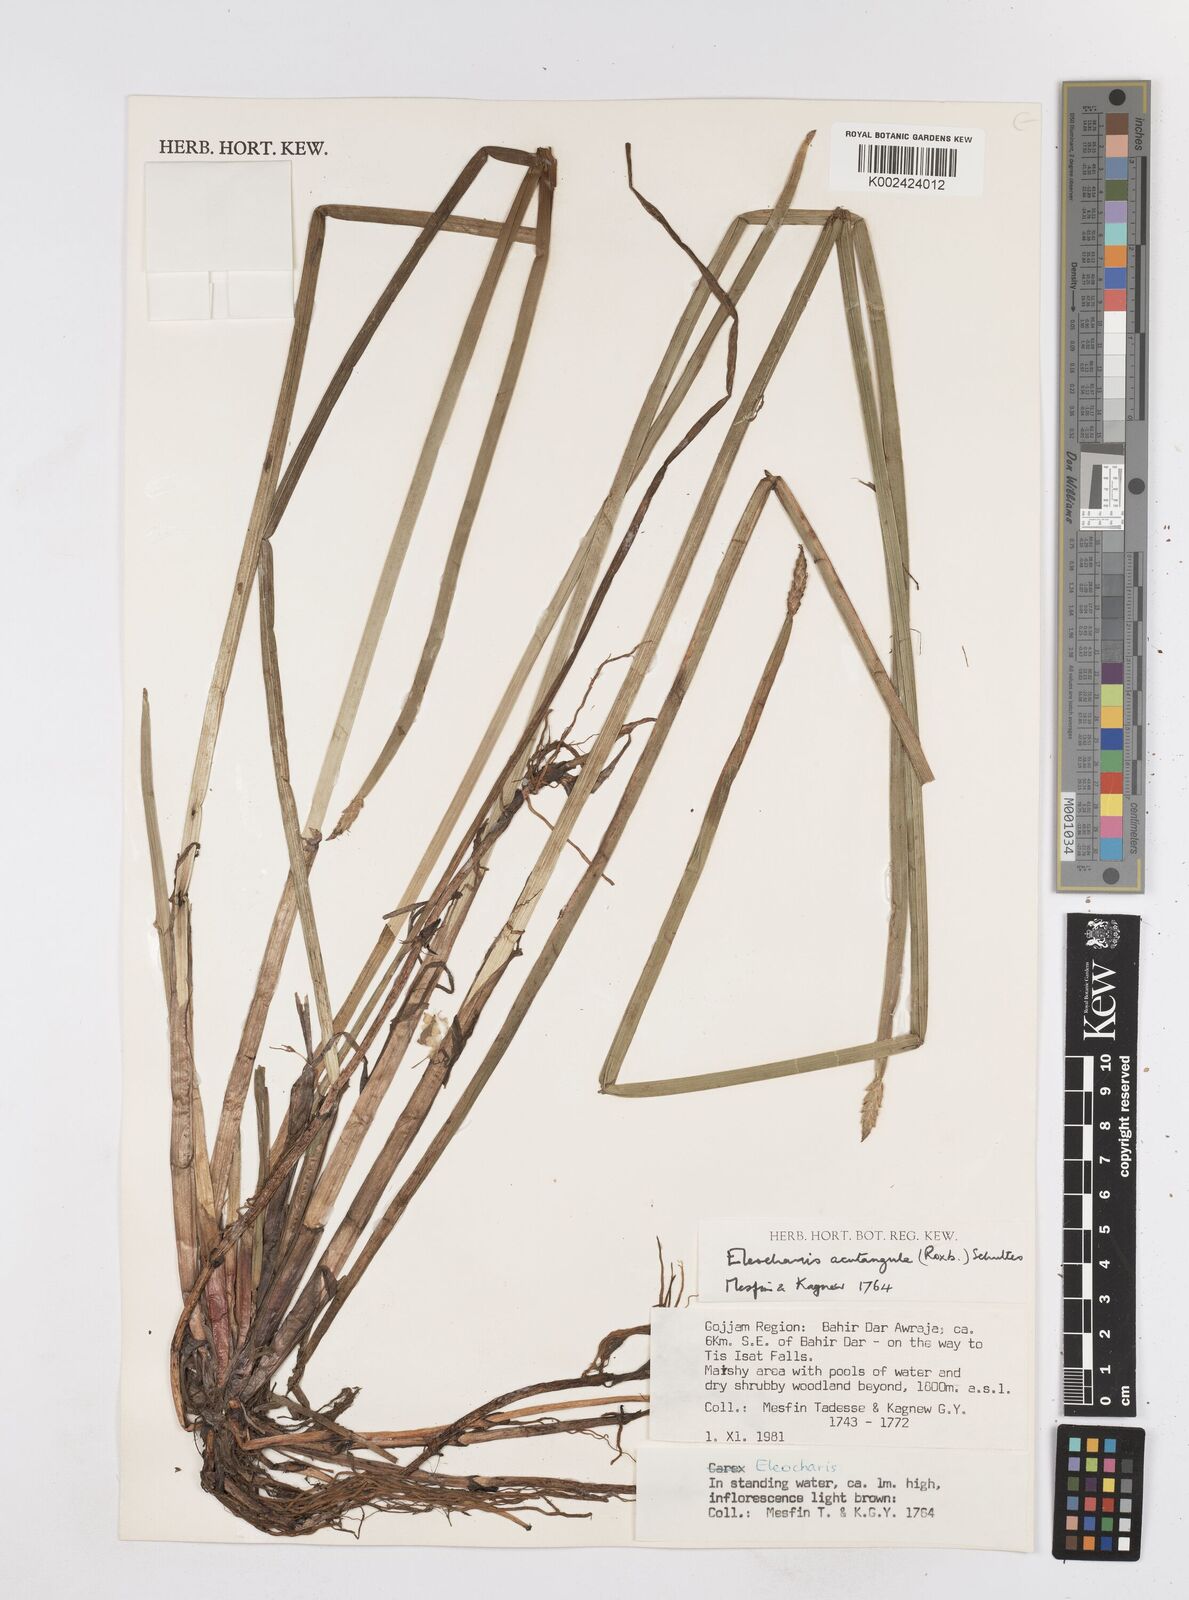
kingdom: Plantae
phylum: Tracheophyta
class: Liliopsida
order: Poales
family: Cyperaceae
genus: Eleocharis
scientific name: Eleocharis acutangula
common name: Acute spikerush
